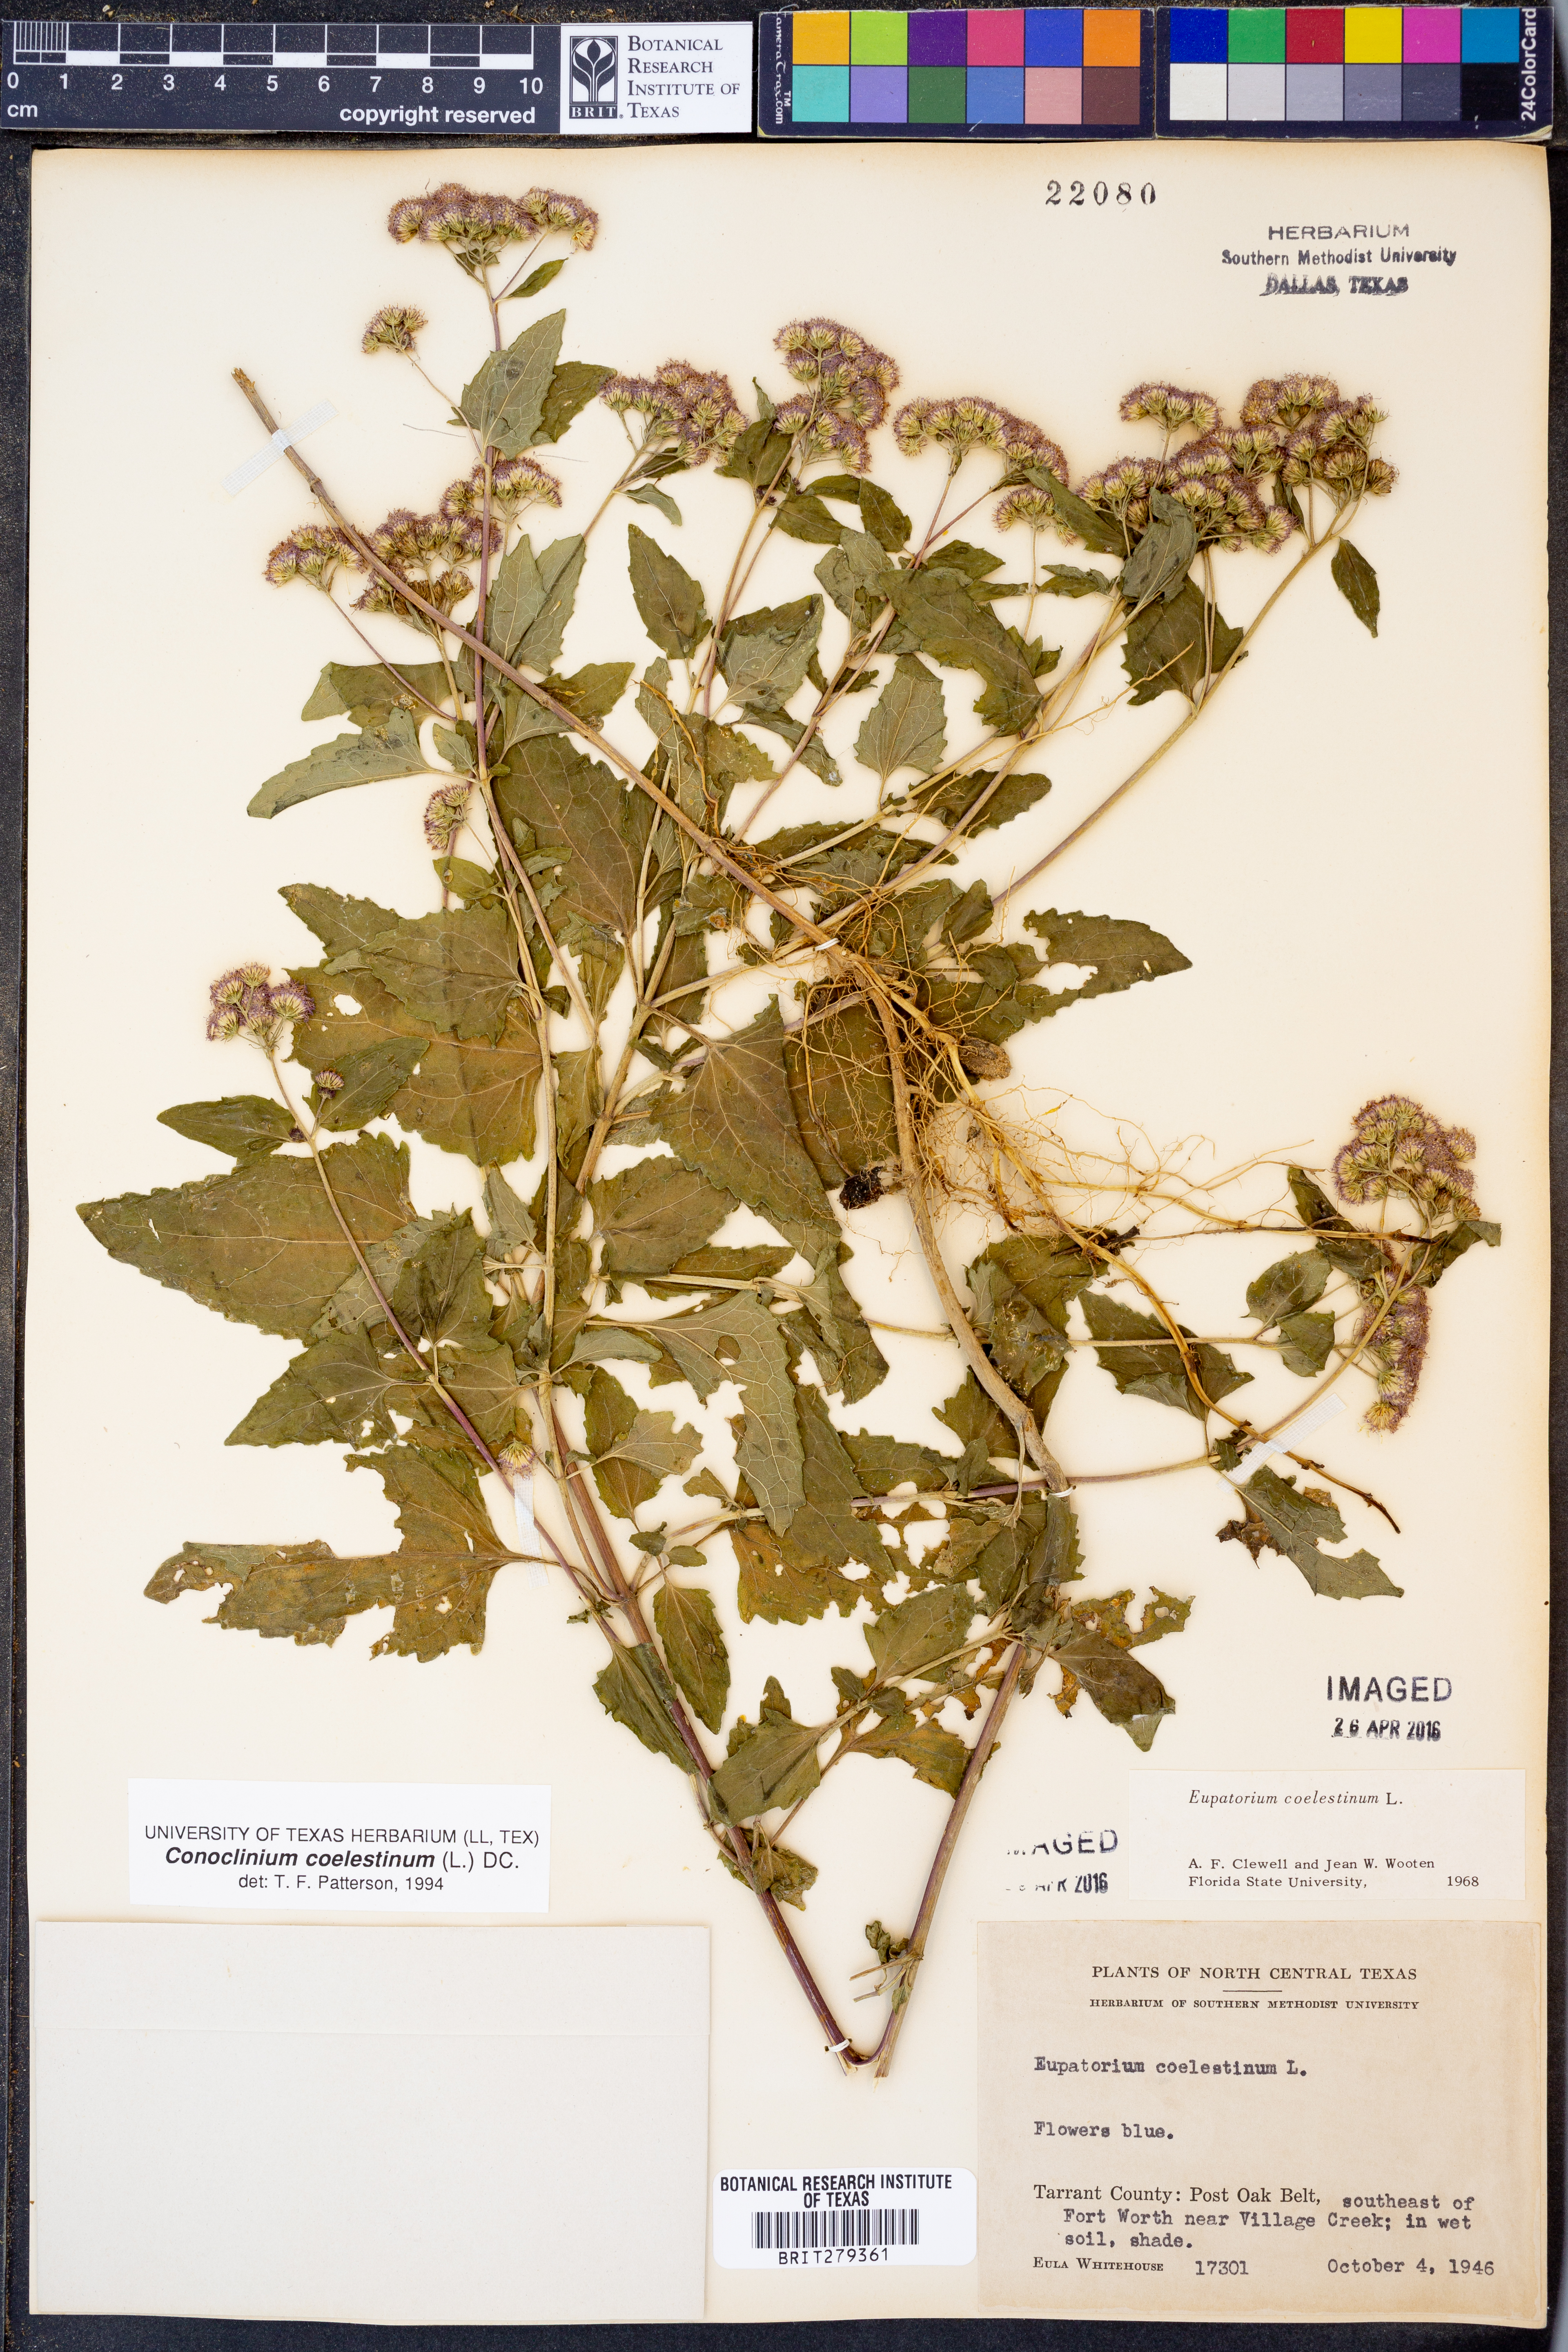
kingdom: Plantae
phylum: Tracheophyta
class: Magnoliopsida
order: Asterales
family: Asteraceae
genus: Conoclinium
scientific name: Conoclinium coelestinum
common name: Blue mistflower
